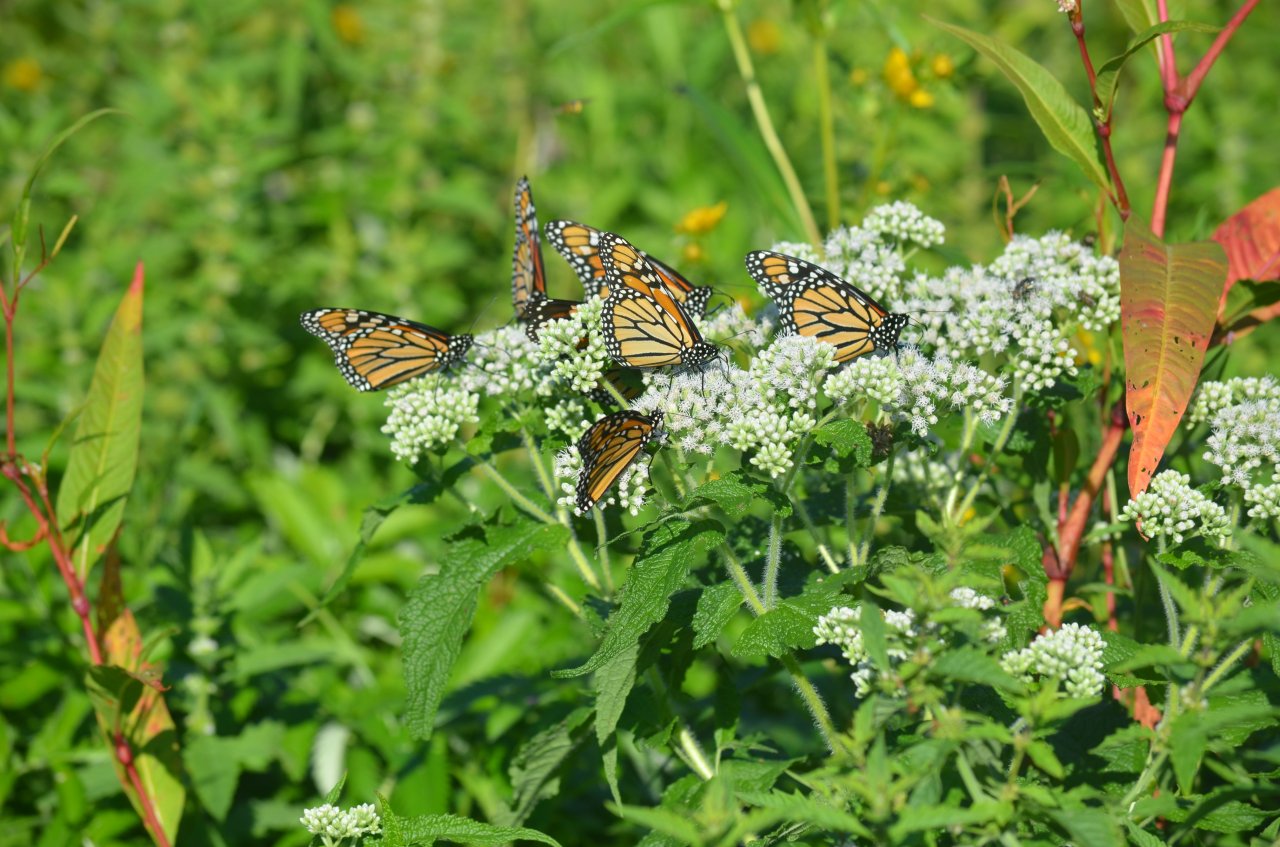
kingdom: Animalia
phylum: Arthropoda
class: Insecta
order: Lepidoptera
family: Nymphalidae
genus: Danaus
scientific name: Danaus plexippus
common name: Monarch
